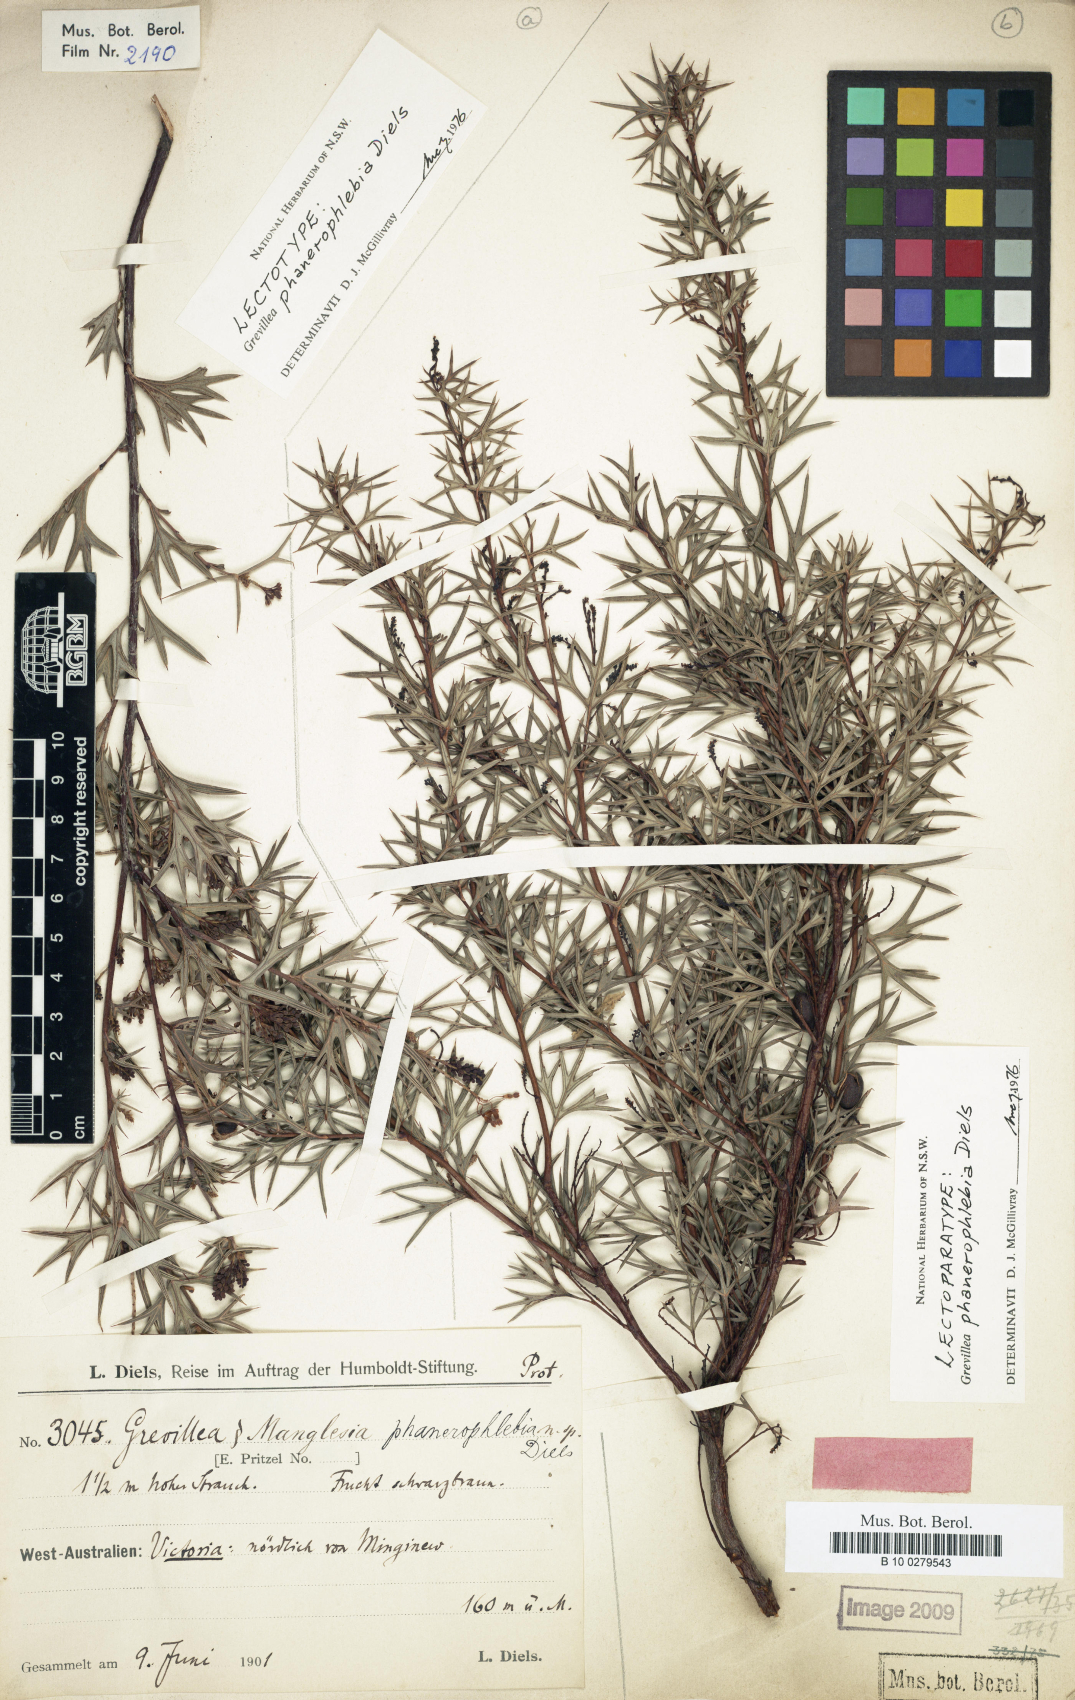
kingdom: Plantae
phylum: Tracheophyta
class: Magnoliopsida
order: Proteales
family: Proteaceae
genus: Grevillea
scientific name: Grevillea phanerophlebia
